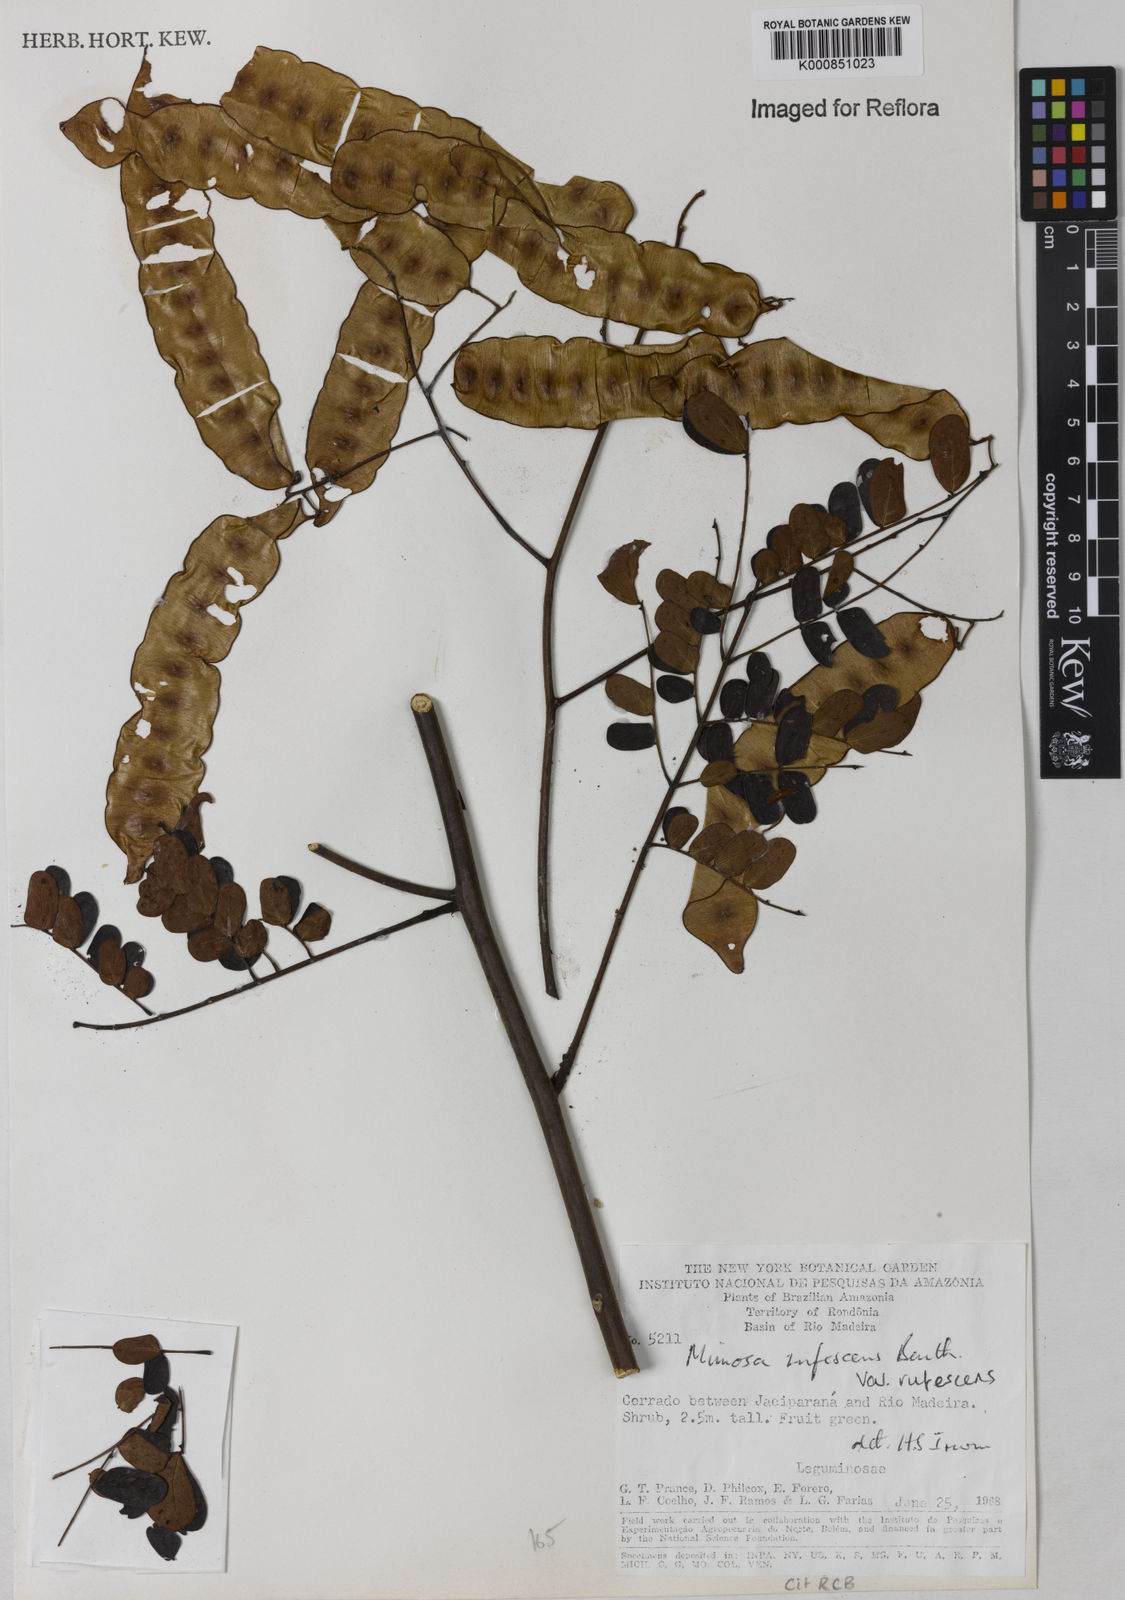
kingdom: Plantae
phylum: Tracheophyta
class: Magnoliopsida
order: Fabales
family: Fabaceae
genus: Mimosa
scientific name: Mimosa rufescens
